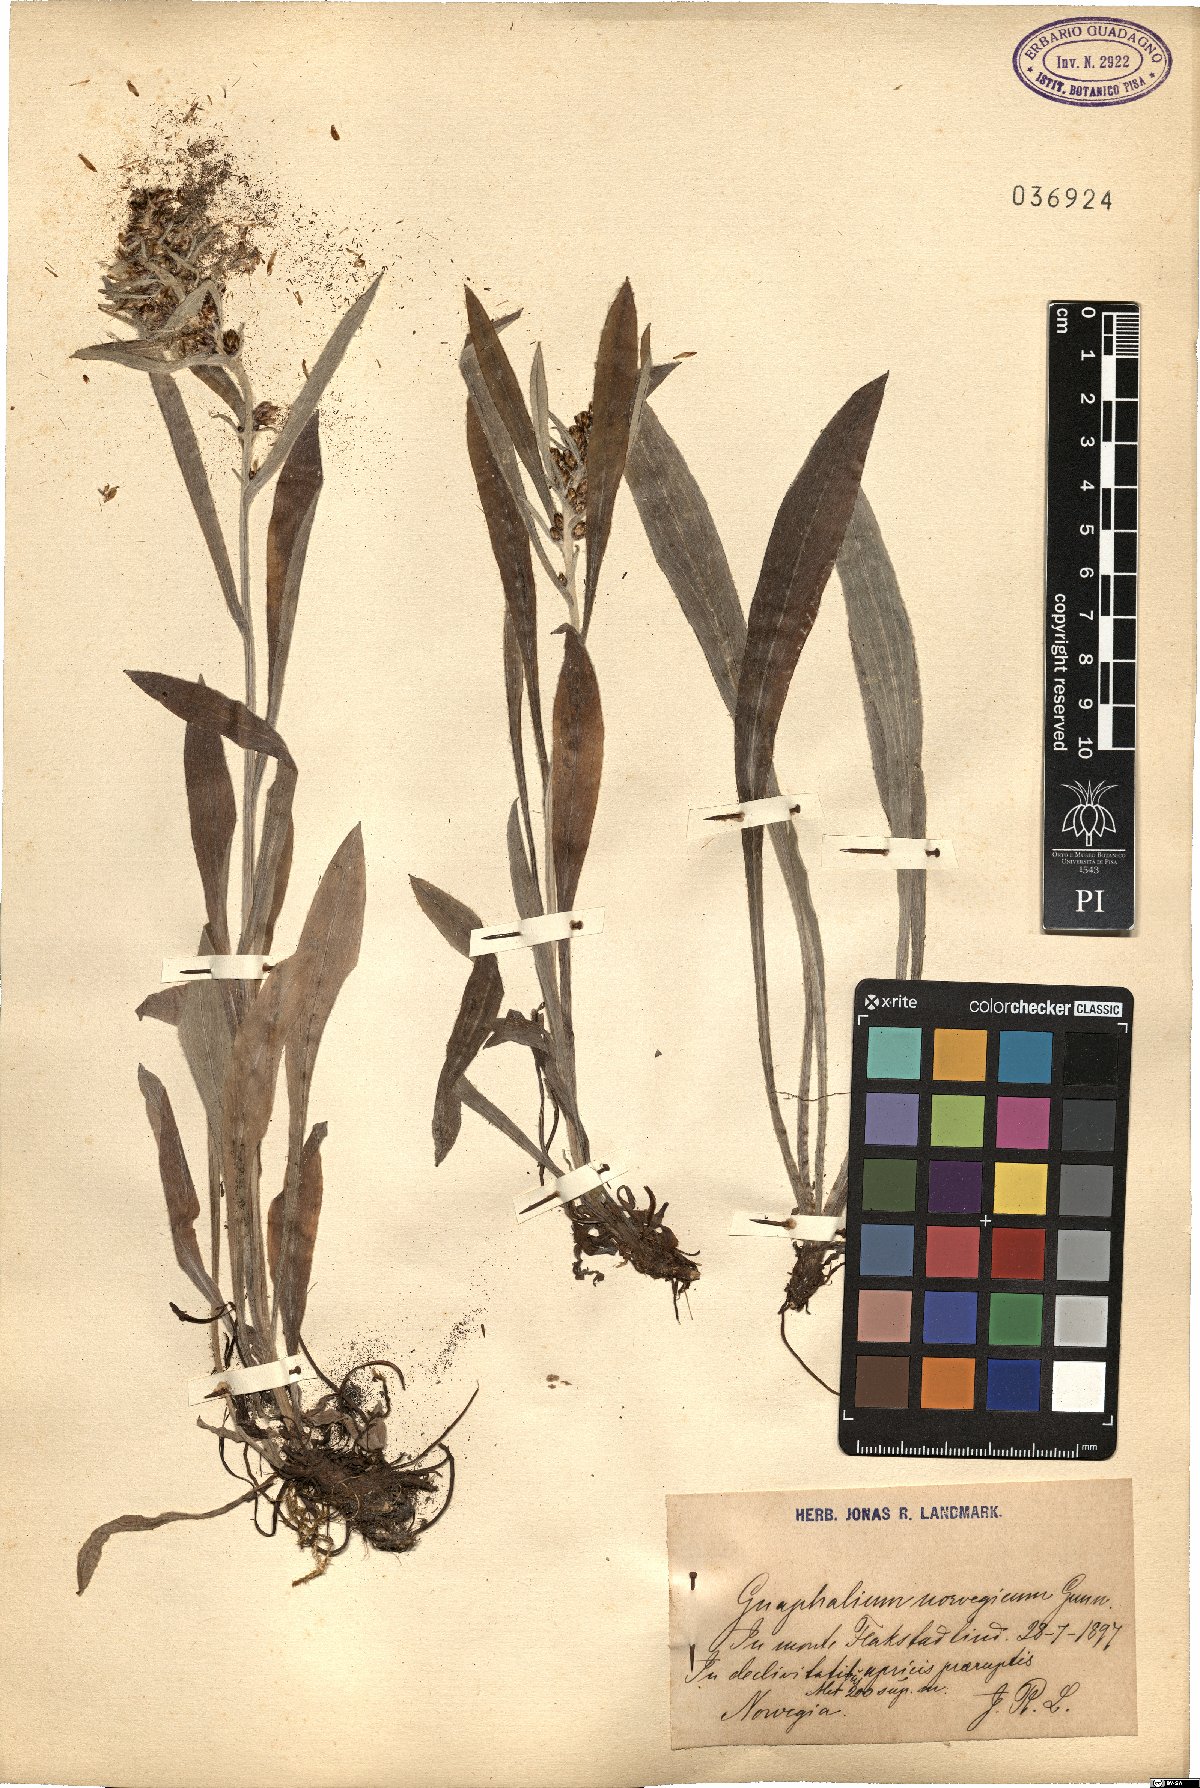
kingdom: Plantae
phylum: Tracheophyta
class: Magnoliopsida
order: Asterales
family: Asteraceae
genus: Omalotheca
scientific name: Omalotheca norvegica
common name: Norwegian arctic-cudweed
